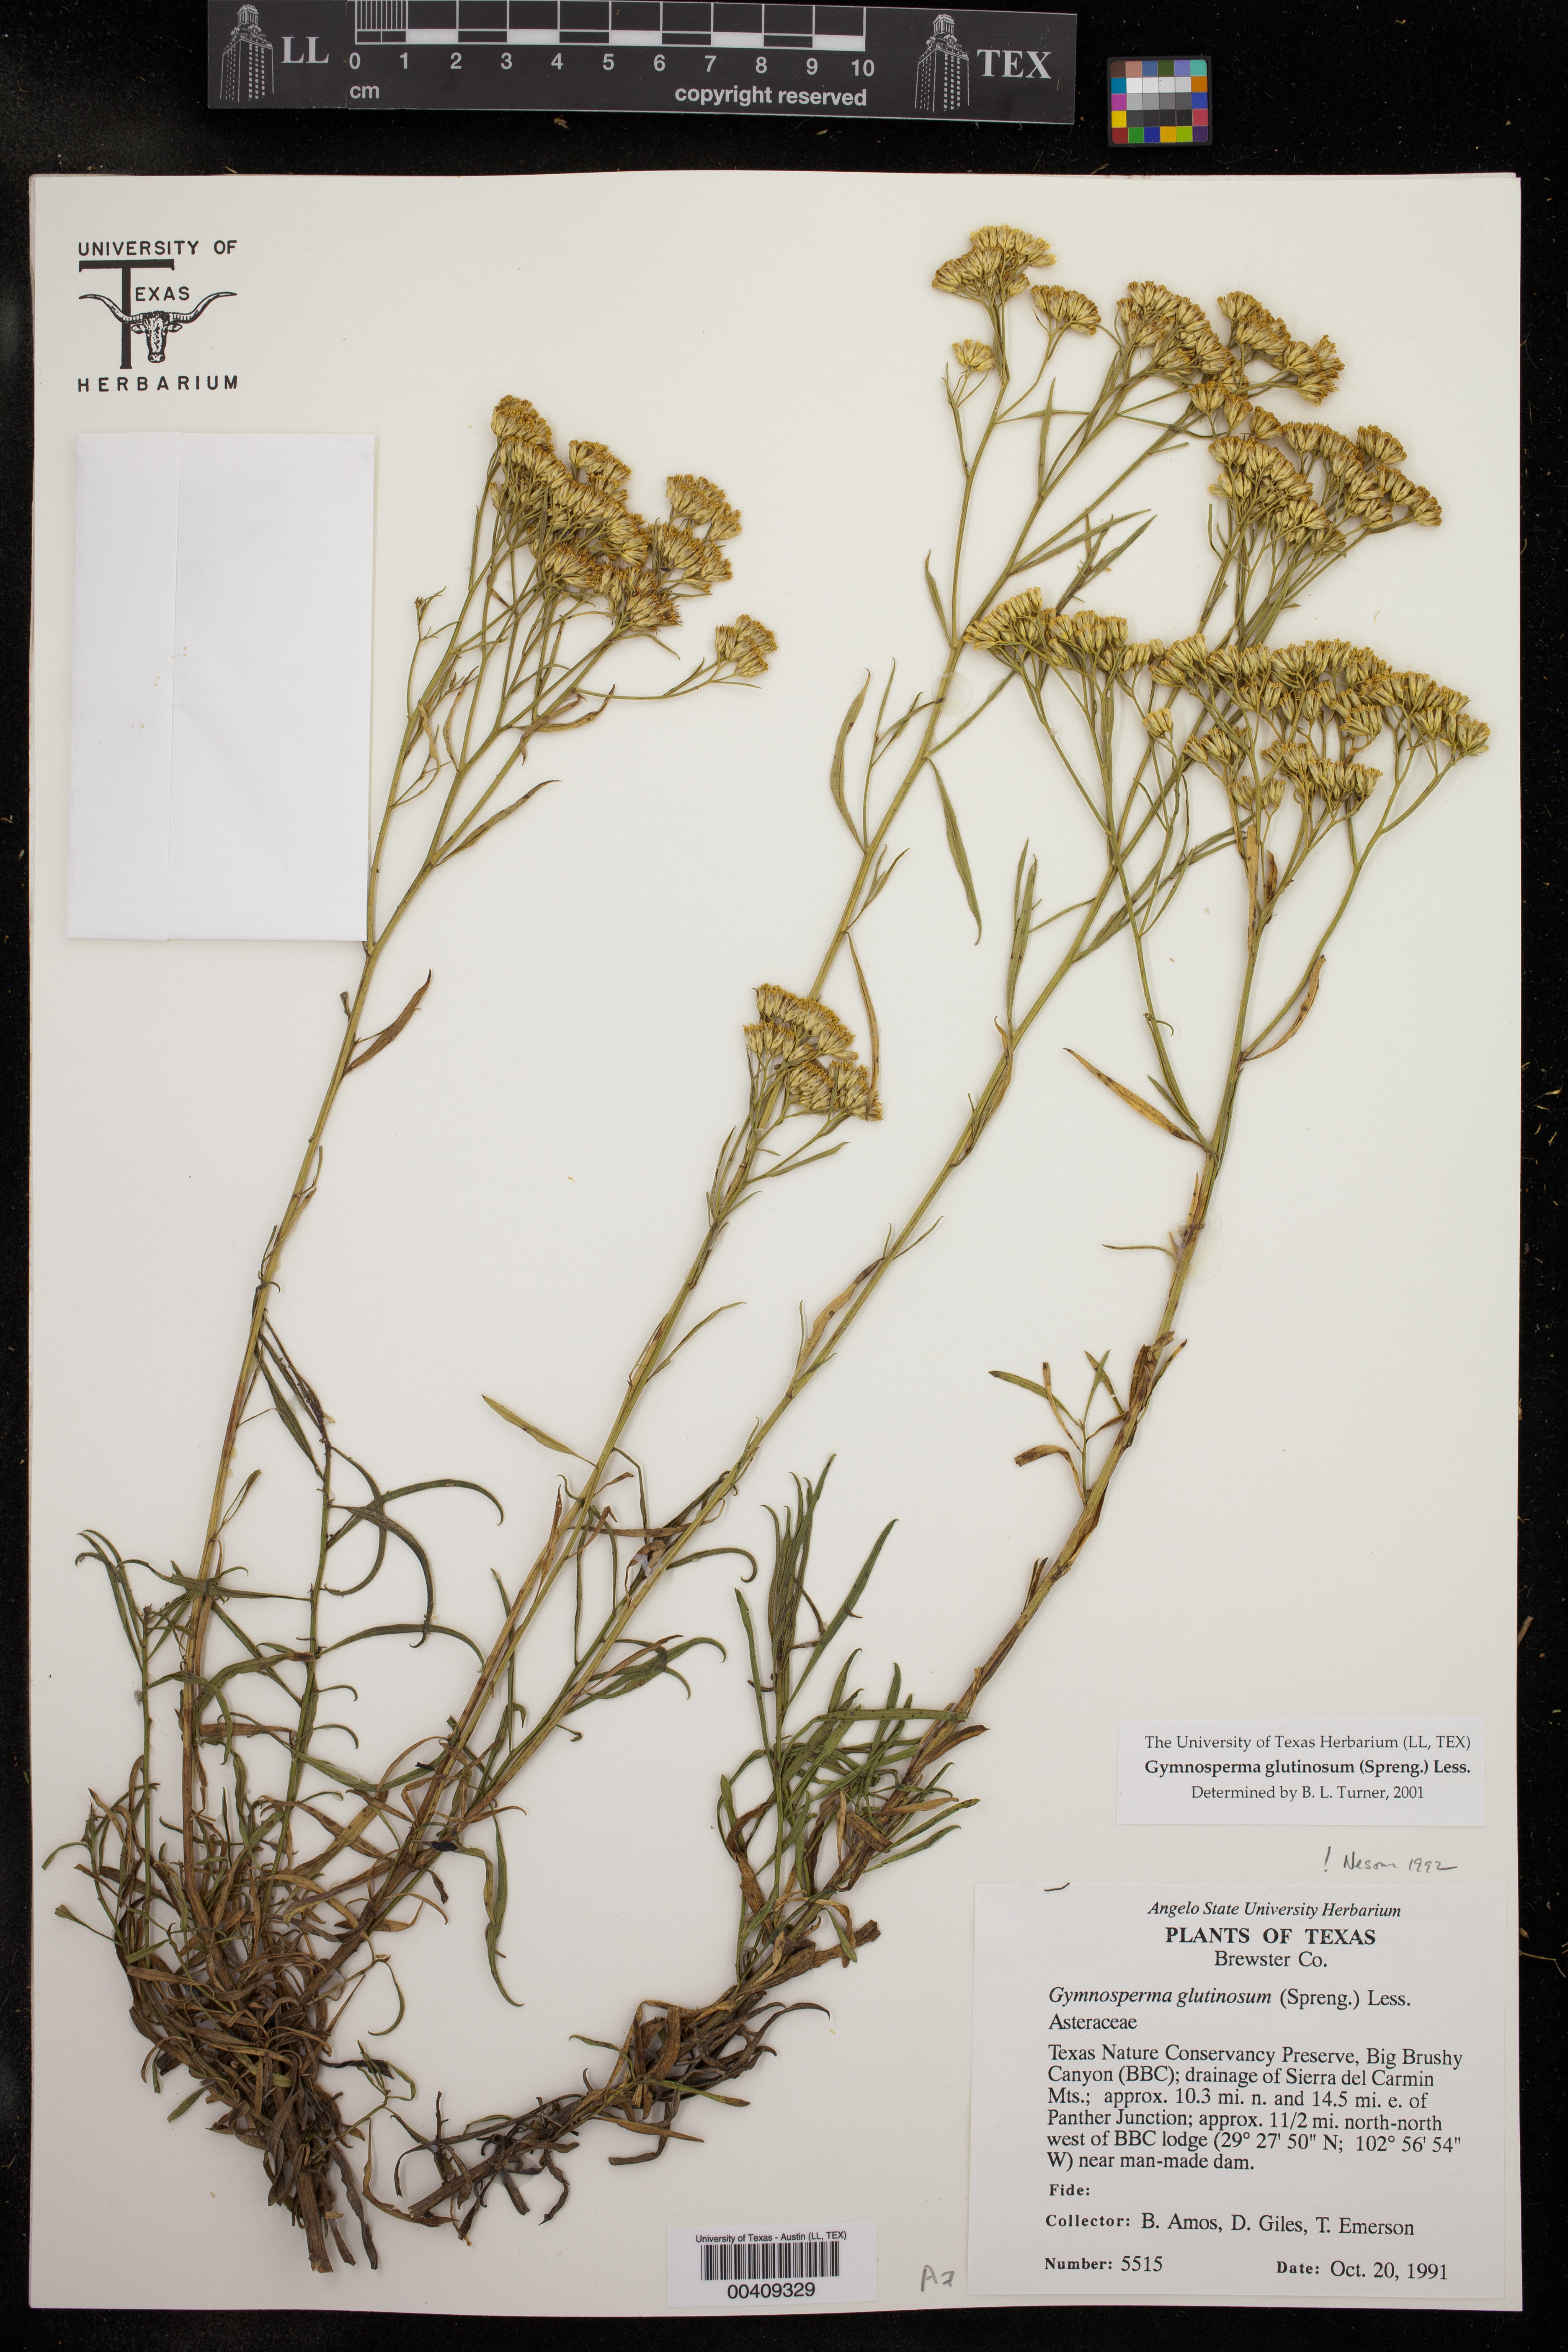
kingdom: Plantae
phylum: Tracheophyta
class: Magnoliopsida
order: Asterales
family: Asteraceae
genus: Gymnosperma
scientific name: Gymnosperma glutinosum
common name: Gumhead
